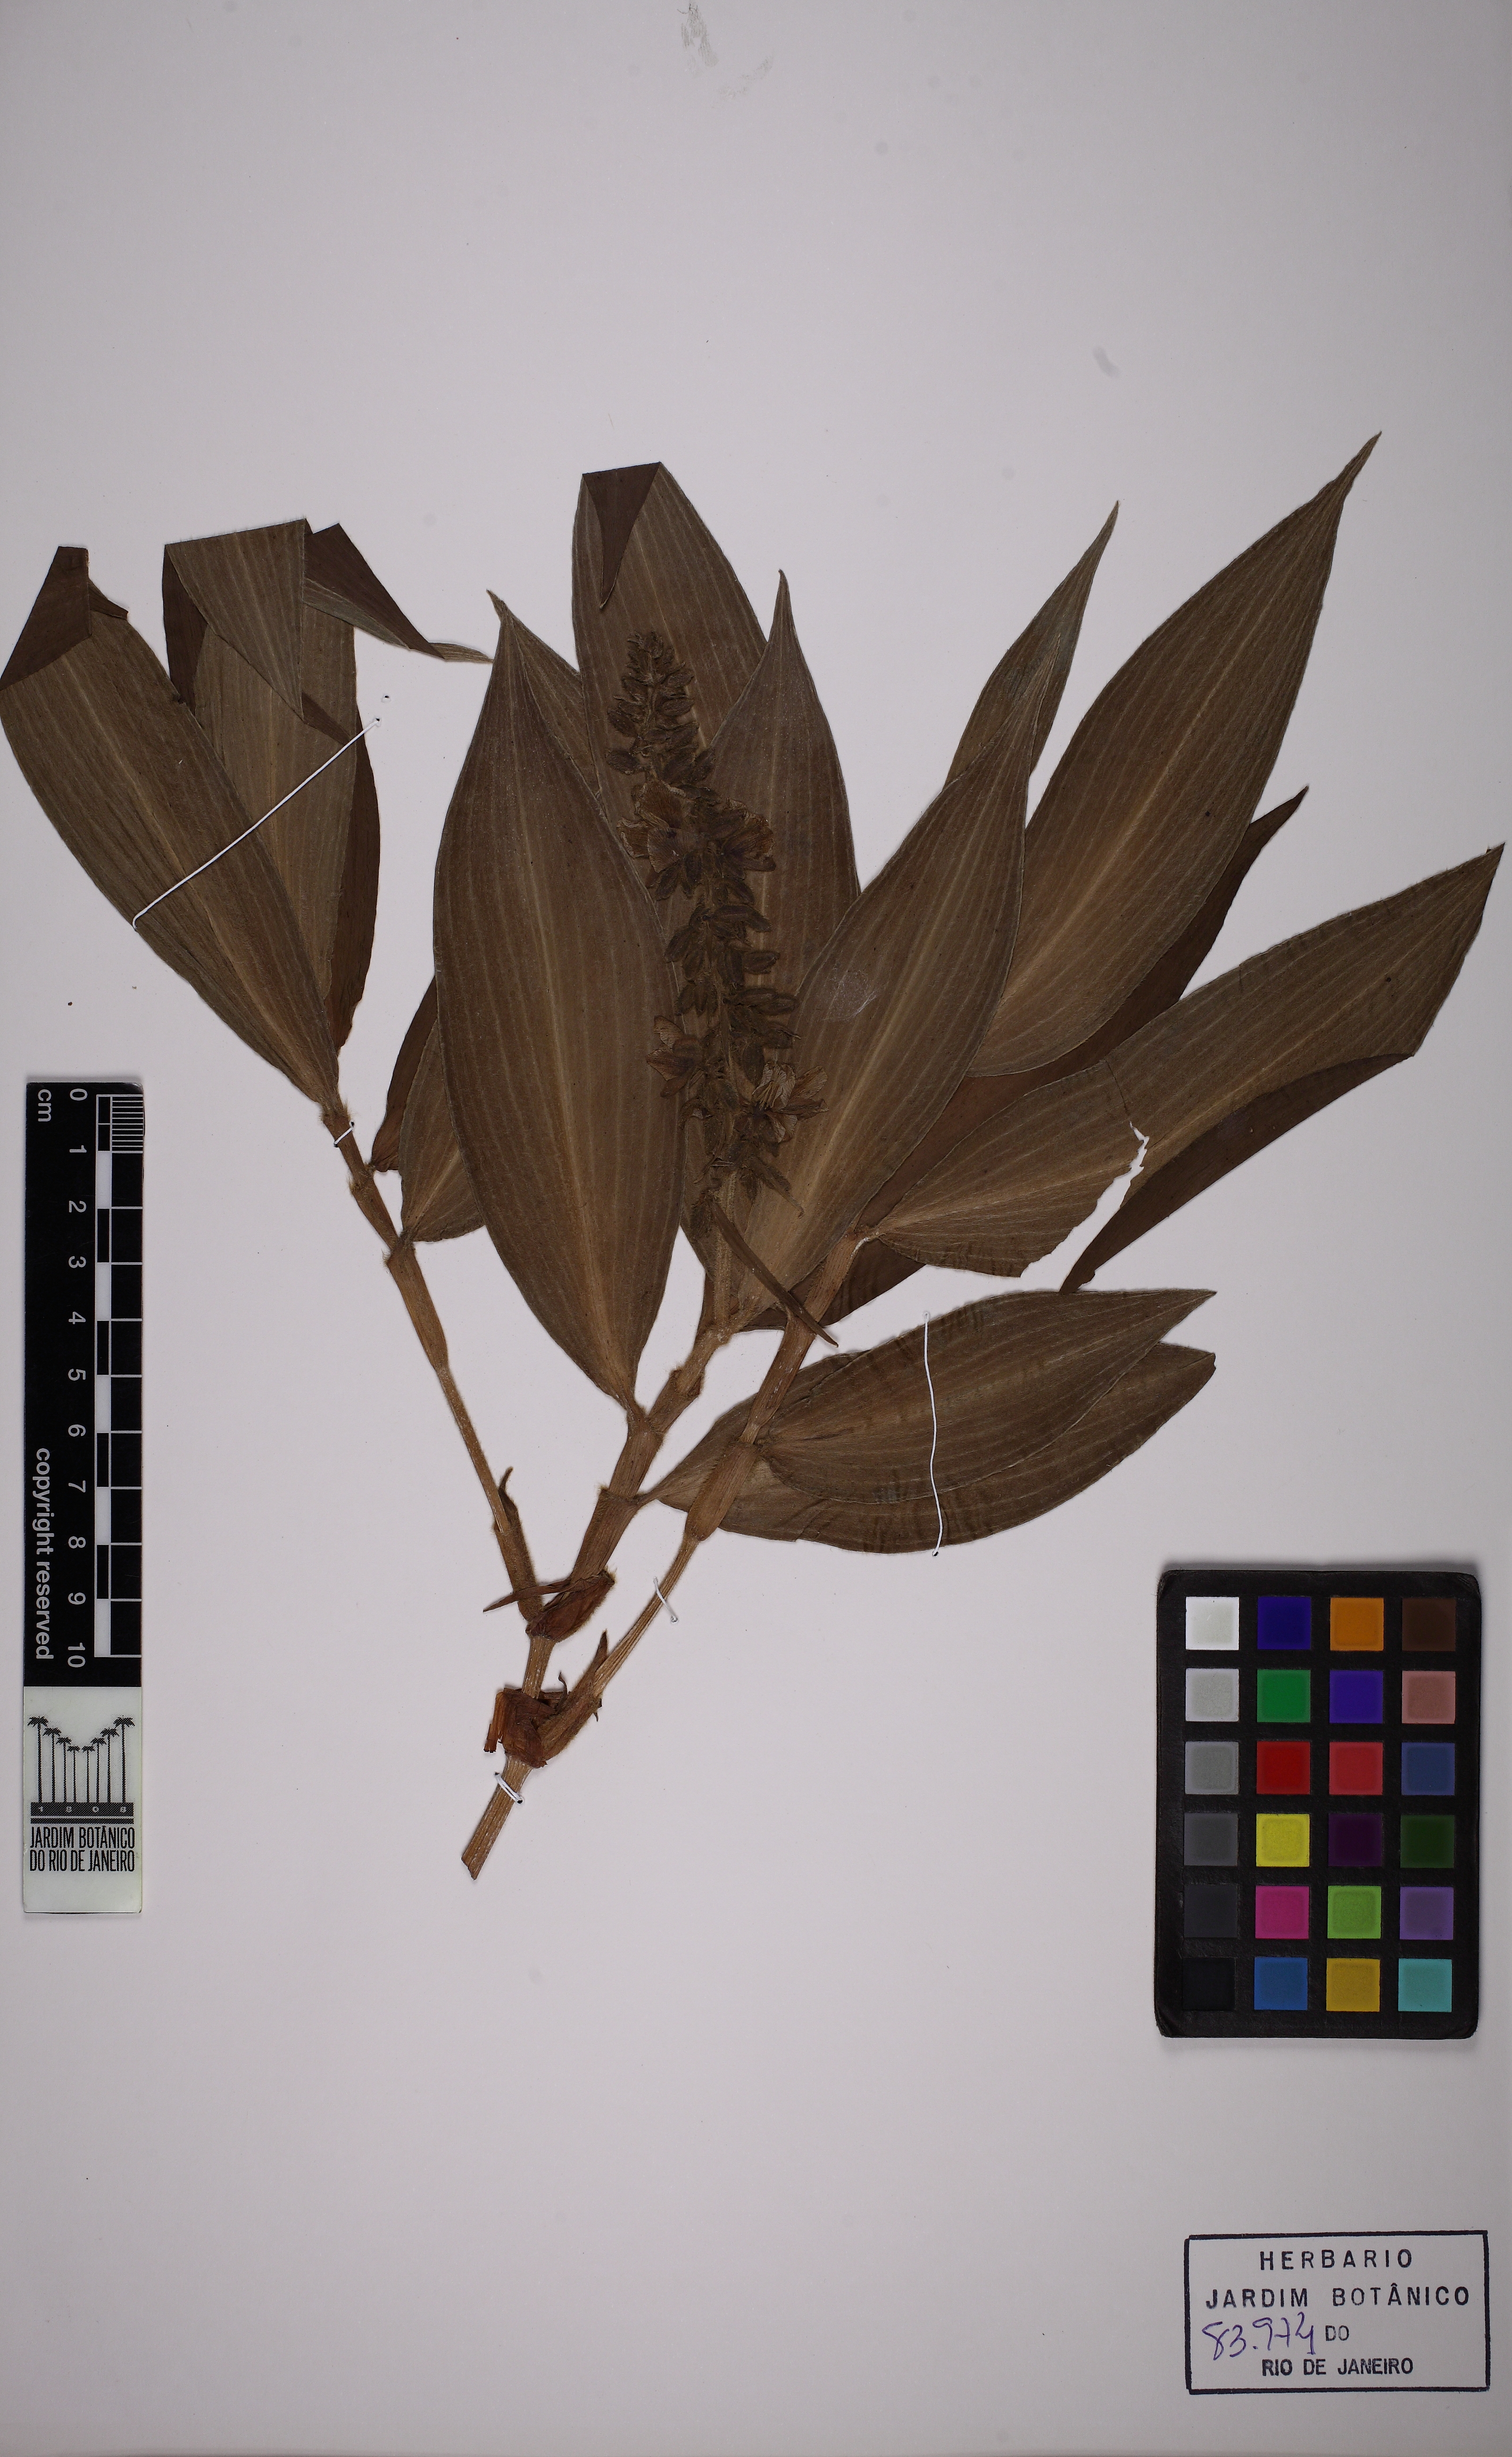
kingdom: Plantae
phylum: Tracheophyta
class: Liliopsida
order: Commelinales
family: Commelinaceae
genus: Dichorisandra
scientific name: Dichorisandra tejucensis
